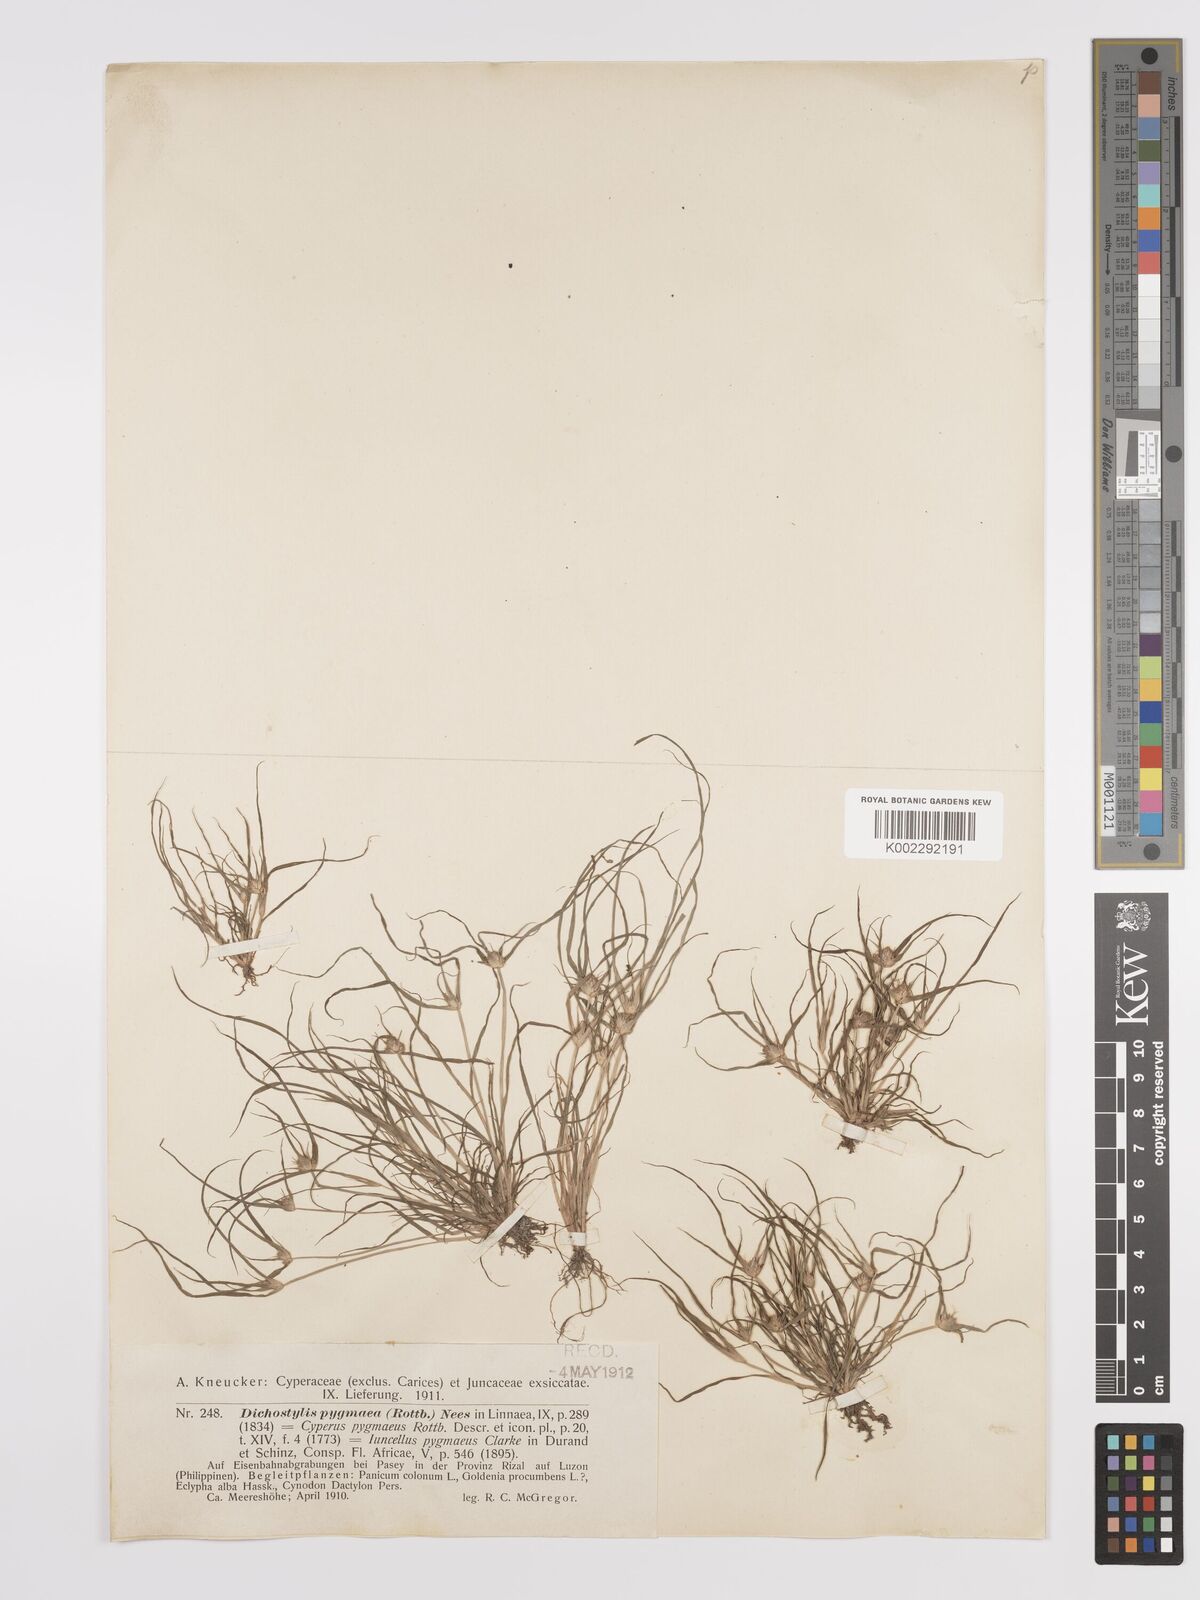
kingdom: Plantae
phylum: Tracheophyta
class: Liliopsida
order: Poales
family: Cyperaceae
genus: Cyperus
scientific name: Cyperus michelianus
